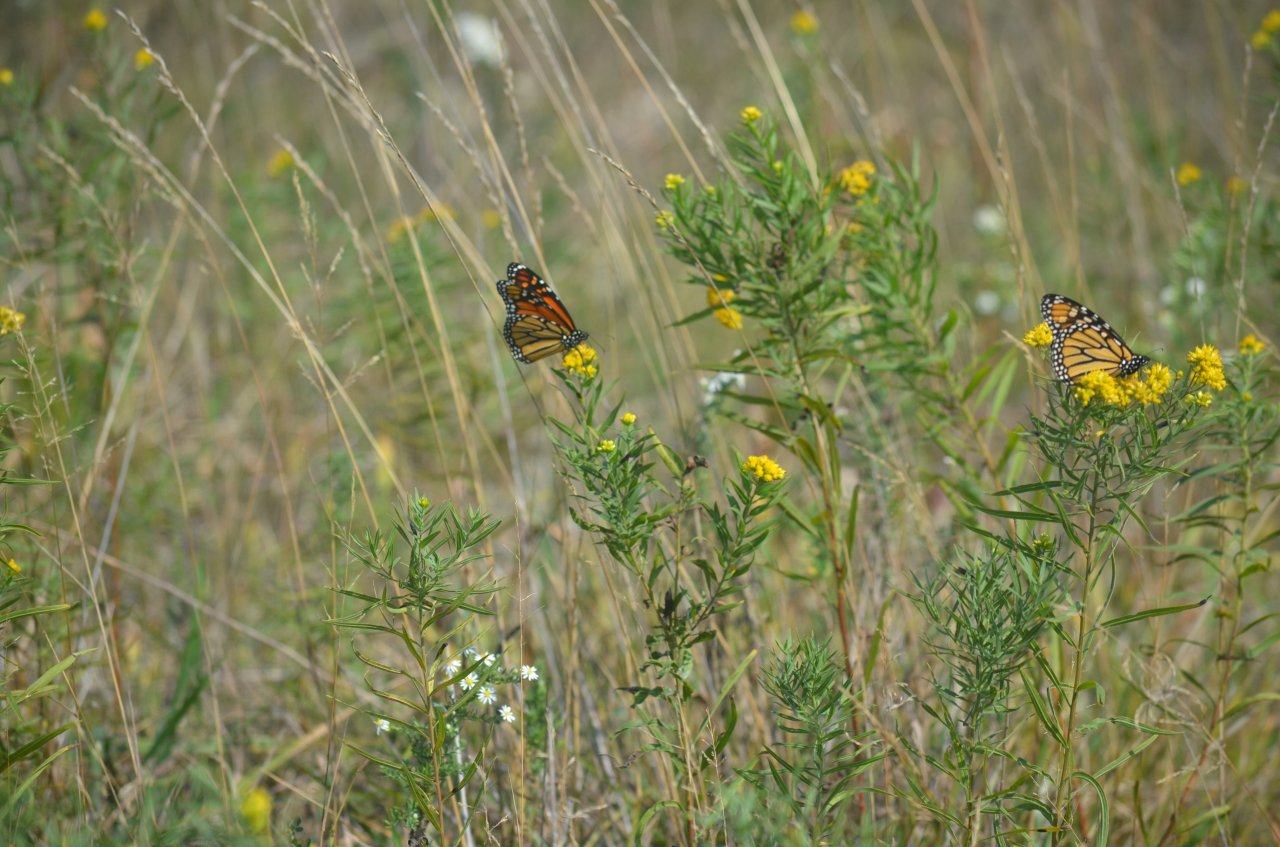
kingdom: Animalia
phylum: Arthropoda
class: Insecta
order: Lepidoptera
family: Nymphalidae
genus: Danaus
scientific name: Danaus plexippus
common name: Monarch
